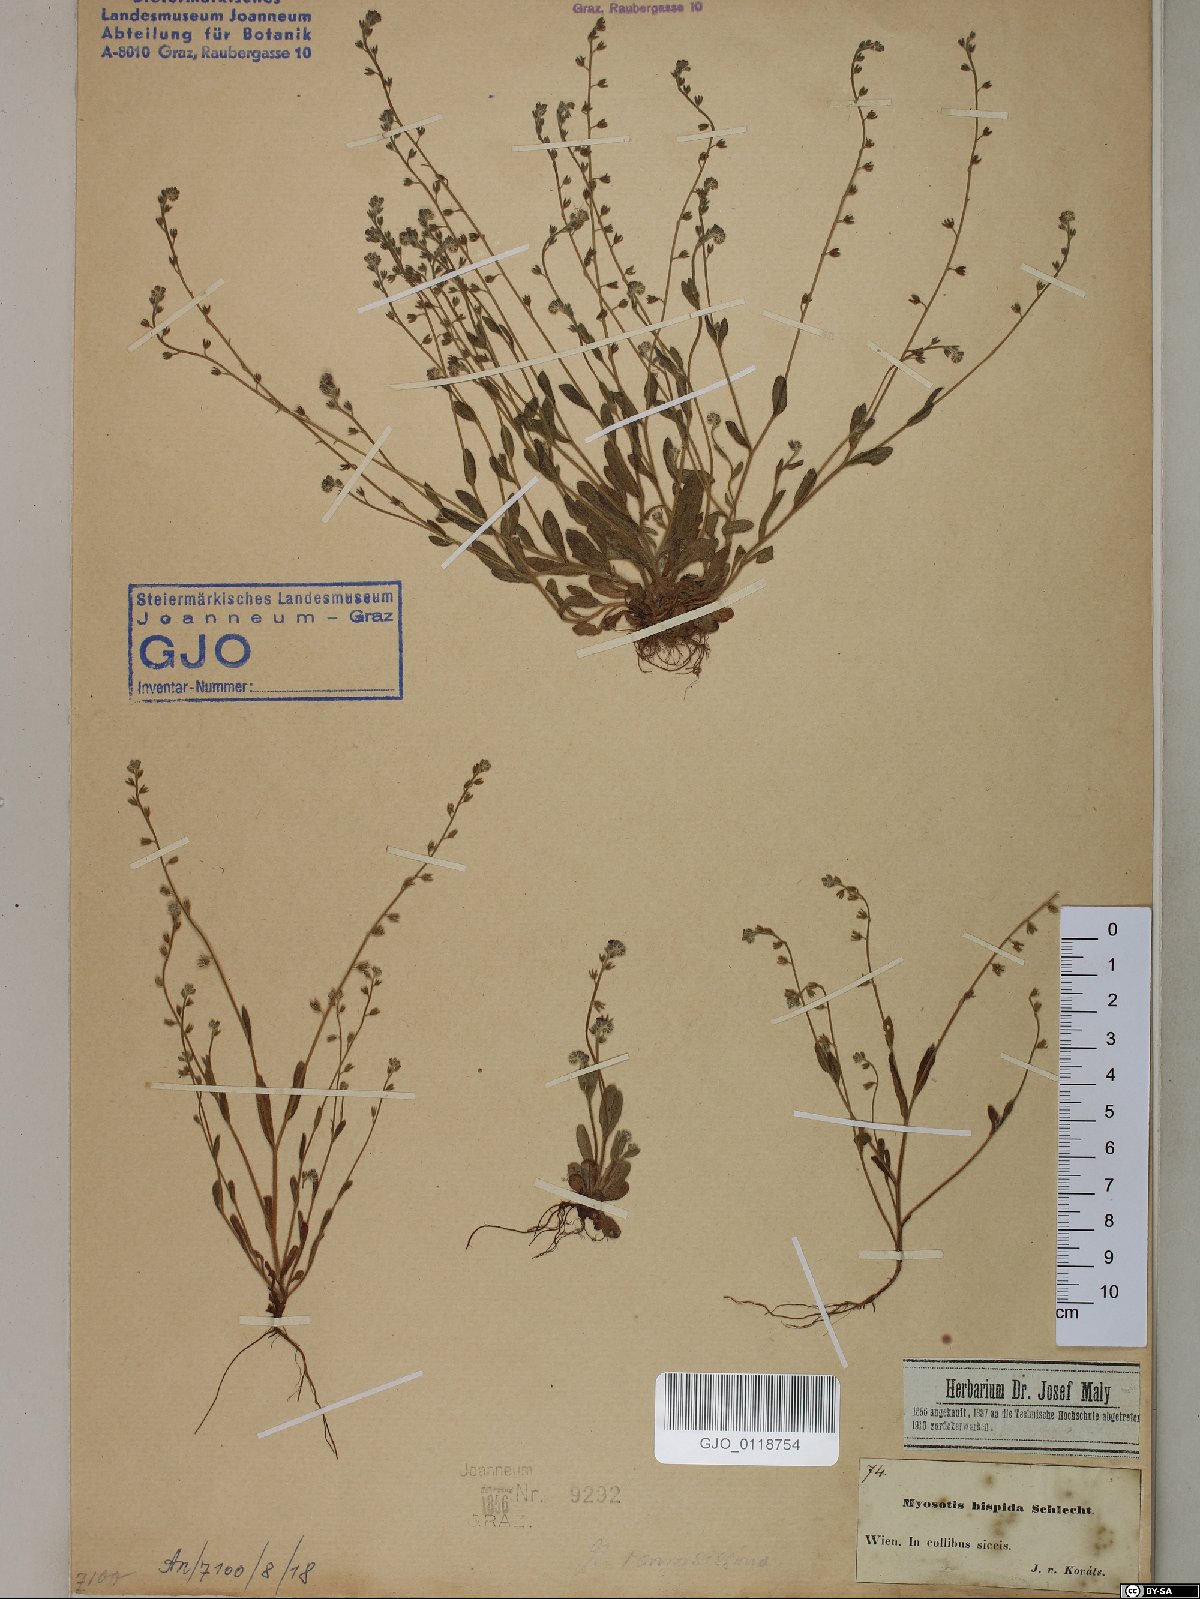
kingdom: Plantae
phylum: Tracheophyta
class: Magnoliopsida
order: Boraginales
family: Boraginaceae
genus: Myosotis
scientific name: Myosotis ramosissima
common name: Early forget-me-not
